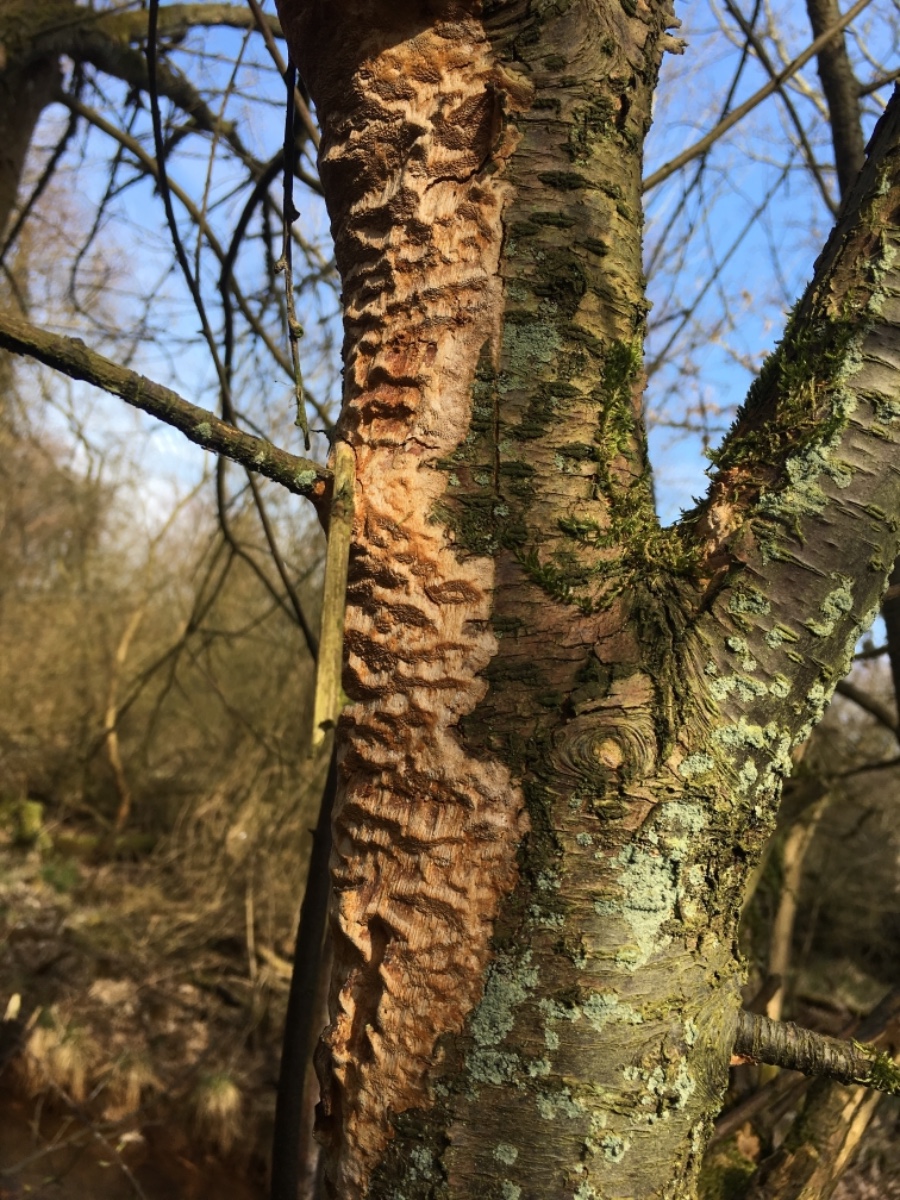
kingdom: Fungi
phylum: Basidiomycota
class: Agaricomycetes
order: Hymenochaetales
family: Hymenochaetaceae
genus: Fuscoporia
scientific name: Fuscoporia ferrea
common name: skorpe-ildporesvamp
